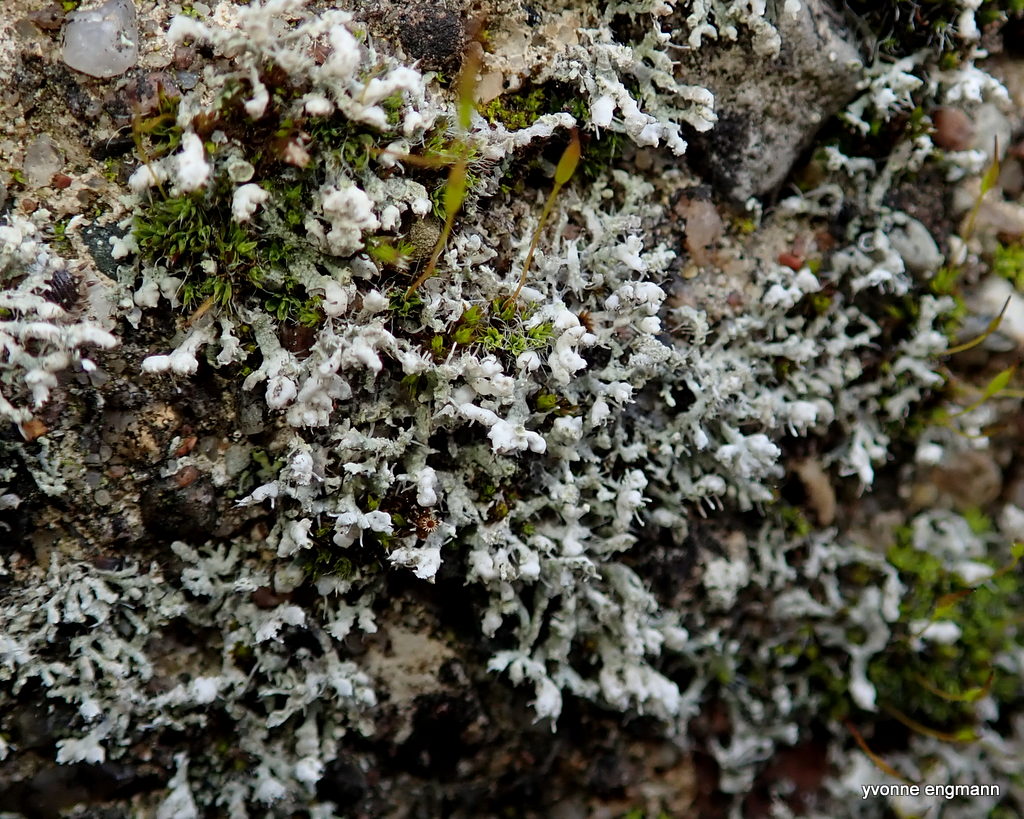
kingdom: Fungi
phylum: Ascomycota
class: Lecanoromycetes
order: Caliciales
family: Physciaceae
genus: Physcia
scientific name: Physcia adscendens
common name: hætte-rosetlav
